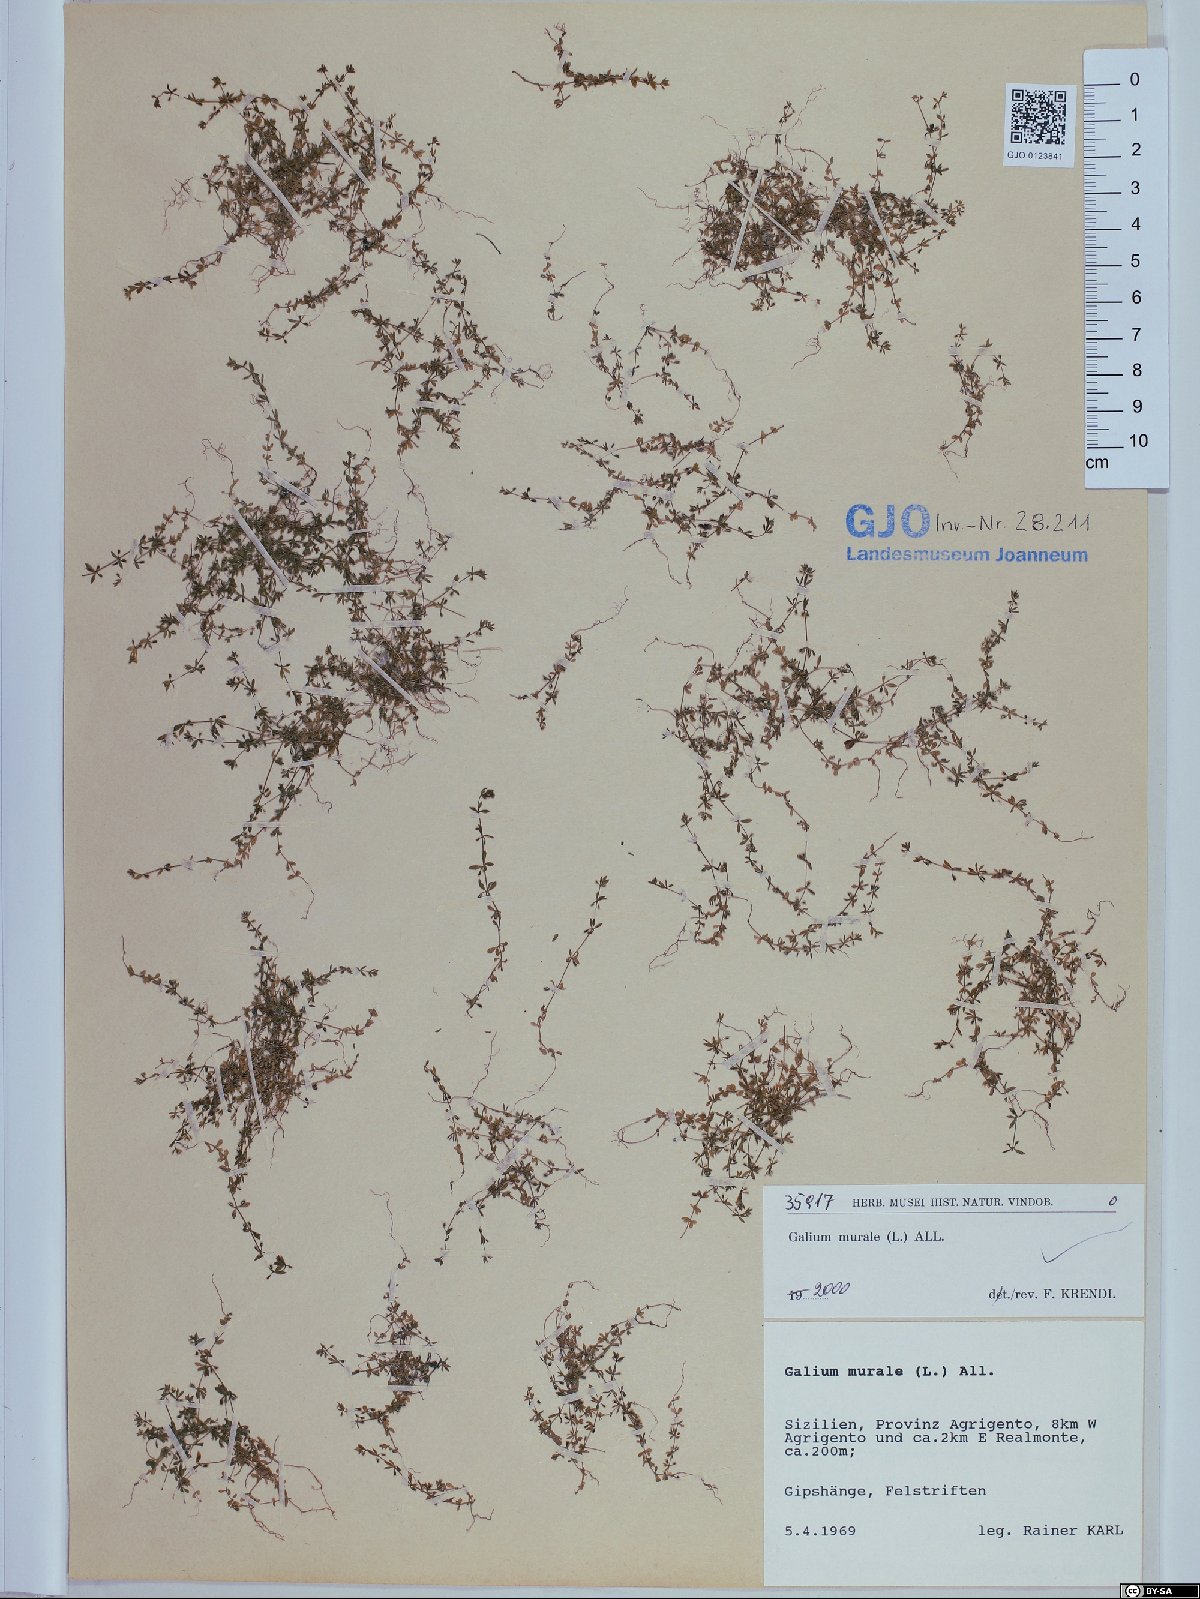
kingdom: Plantae
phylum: Tracheophyta
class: Magnoliopsida
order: Gentianales
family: Rubiaceae
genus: Galium
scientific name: Galium murale
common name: Yellow wall bedstraw
